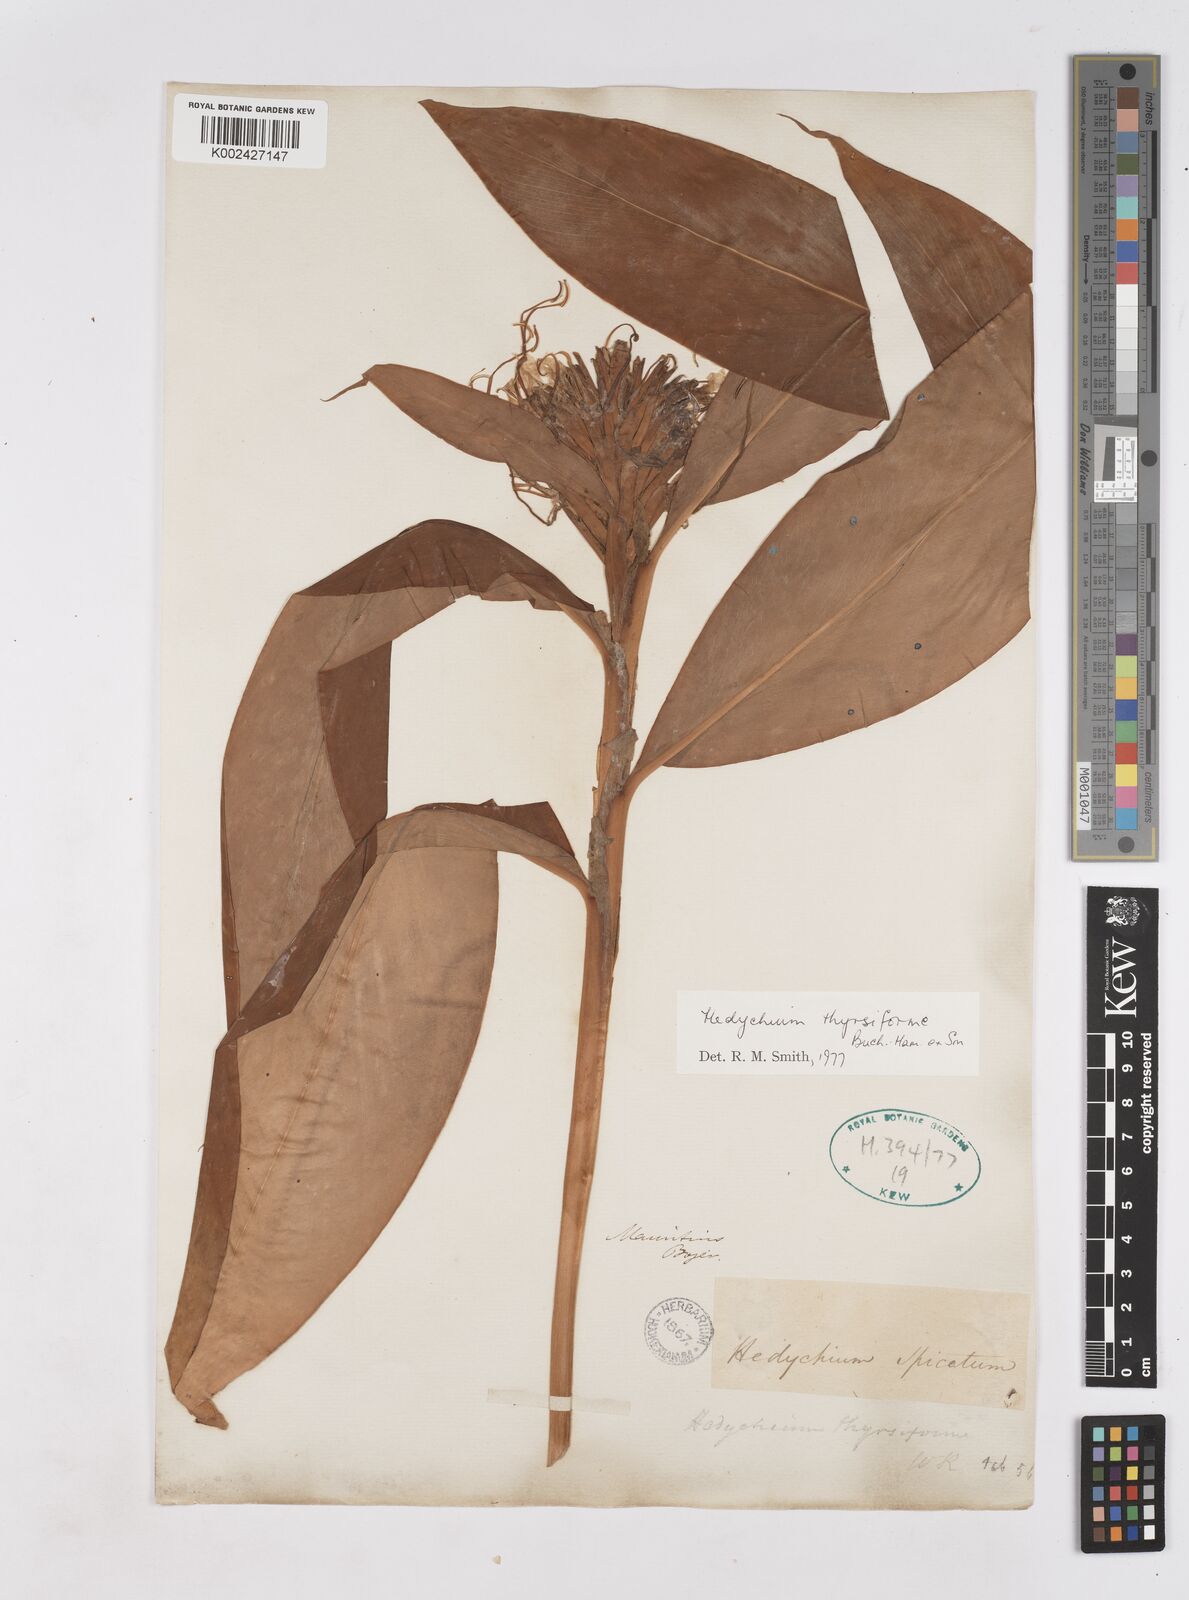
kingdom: Plantae
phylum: Tracheophyta
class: Liliopsida
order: Zingiberales
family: Zingiberaceae
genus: Hedychium
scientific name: Hedychium thyrsiforme
